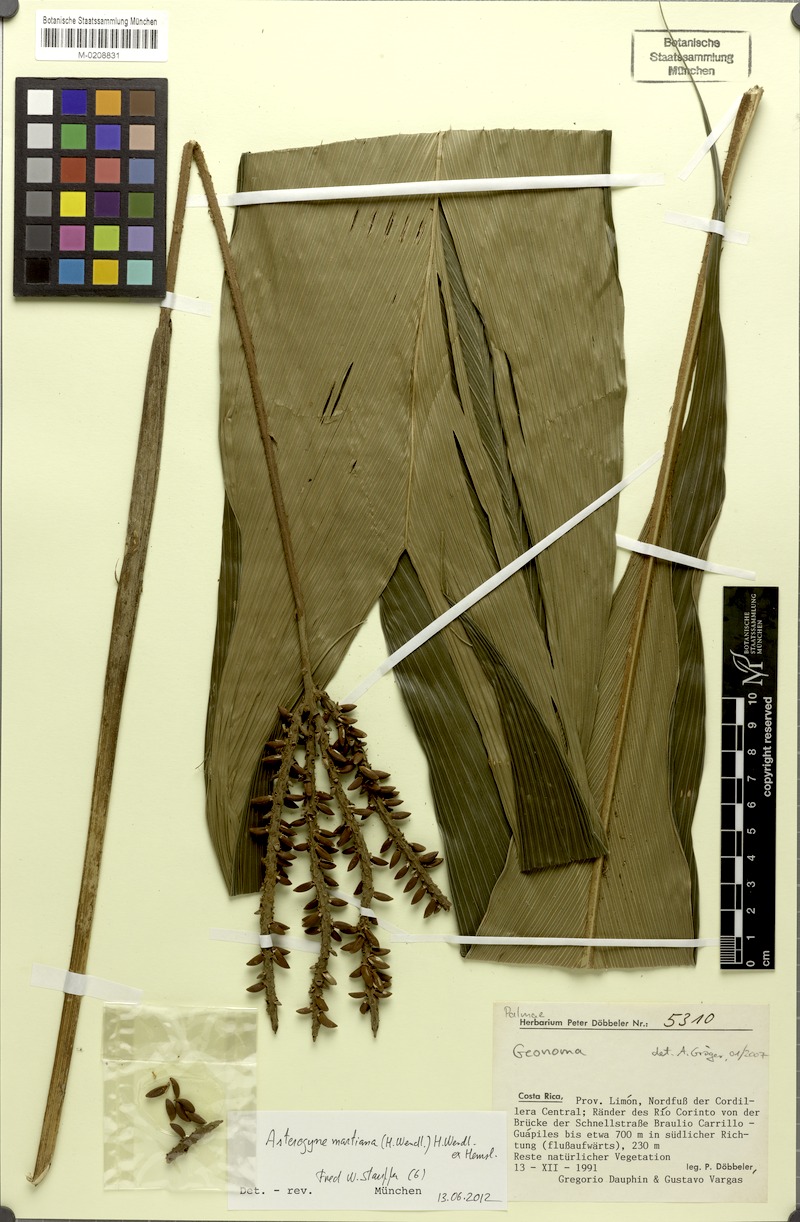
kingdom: Plantae
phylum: Tracheophyta
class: Liliopsida
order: Arecales
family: Arecaceae
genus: Asterogyne
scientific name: Asterogyne martiana
